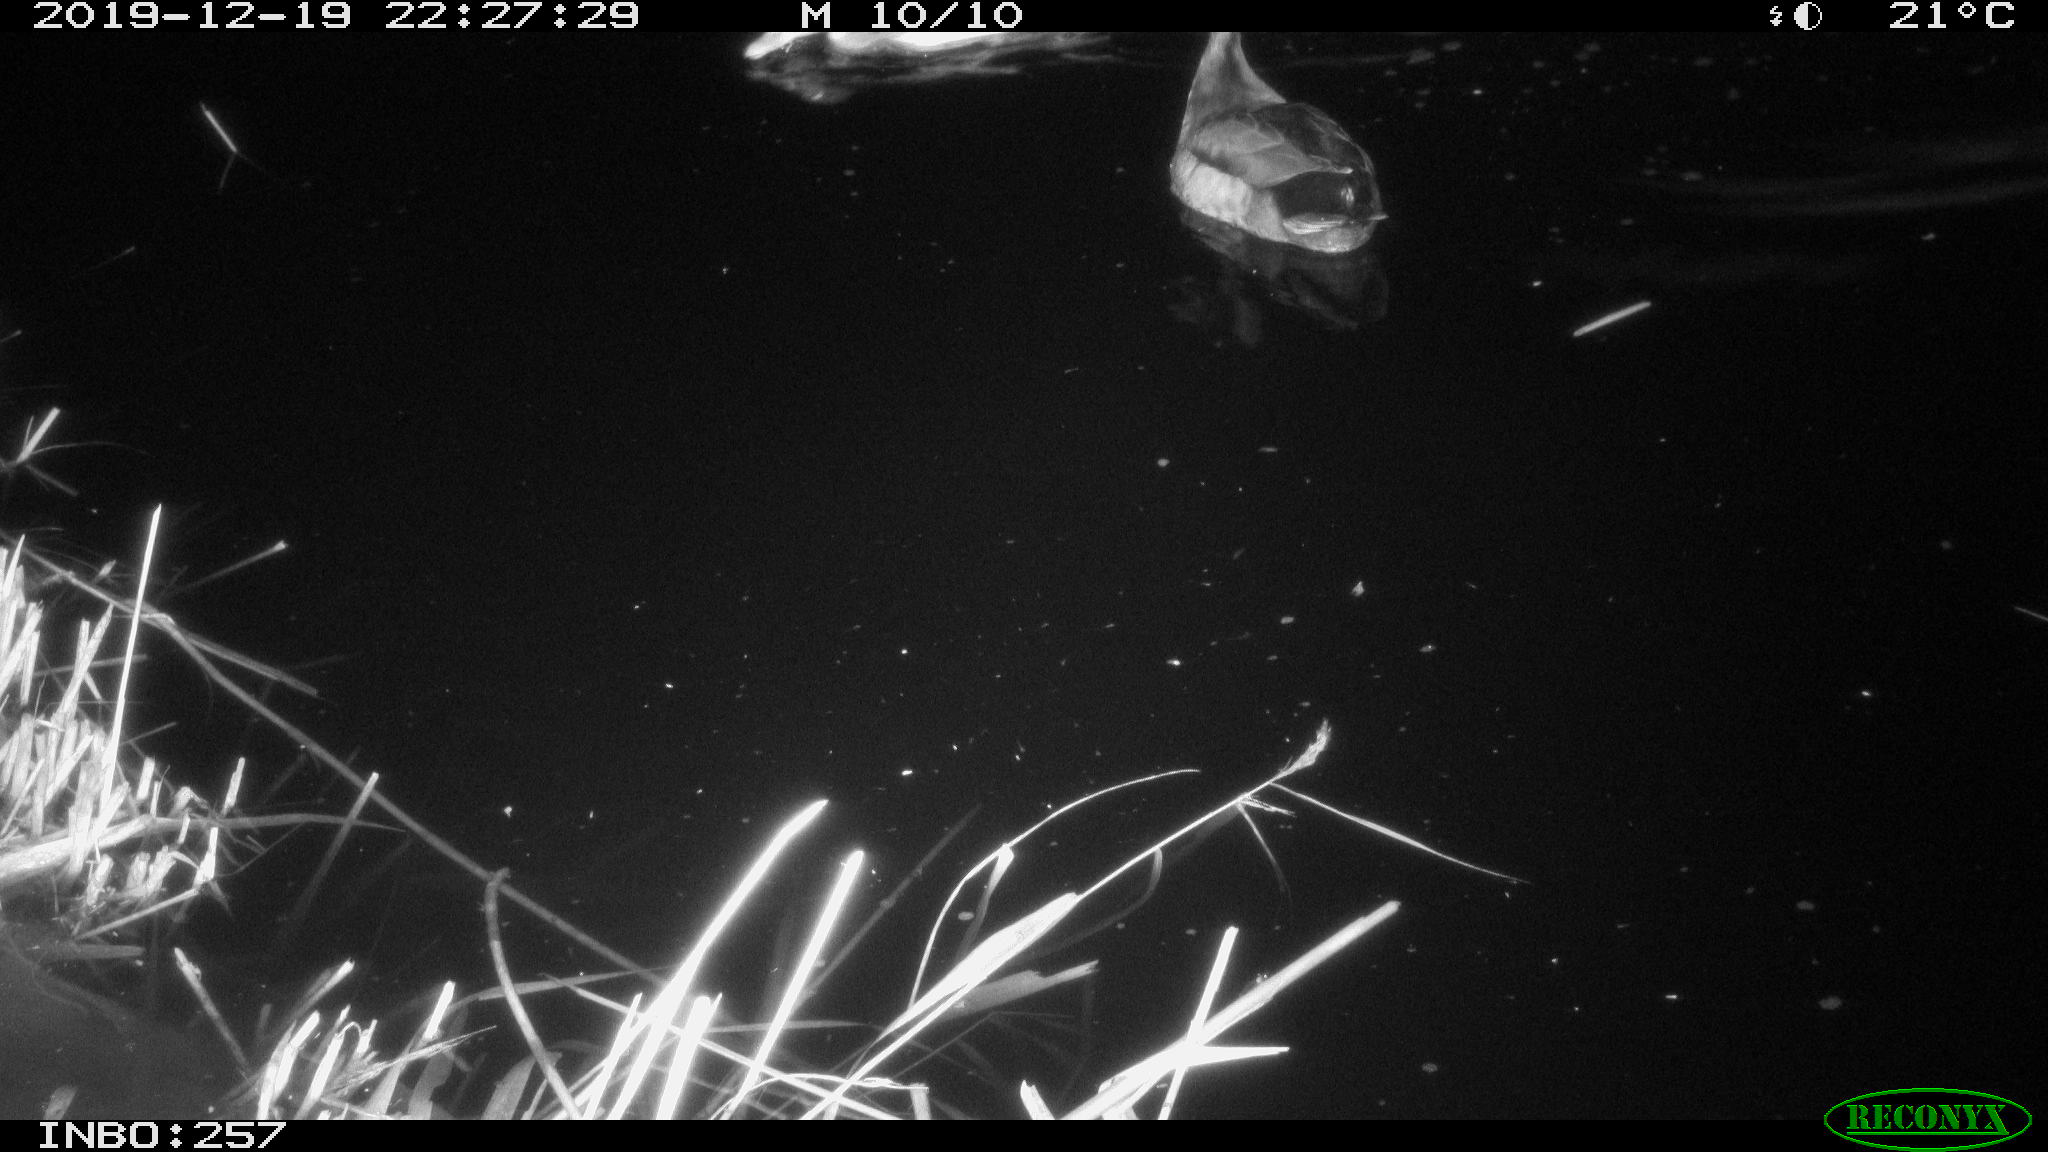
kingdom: Animalia
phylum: Chordata
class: Aves
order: Anseriformes
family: Anatidae
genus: Anas
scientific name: Anas platyrhynchos
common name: Mallard
